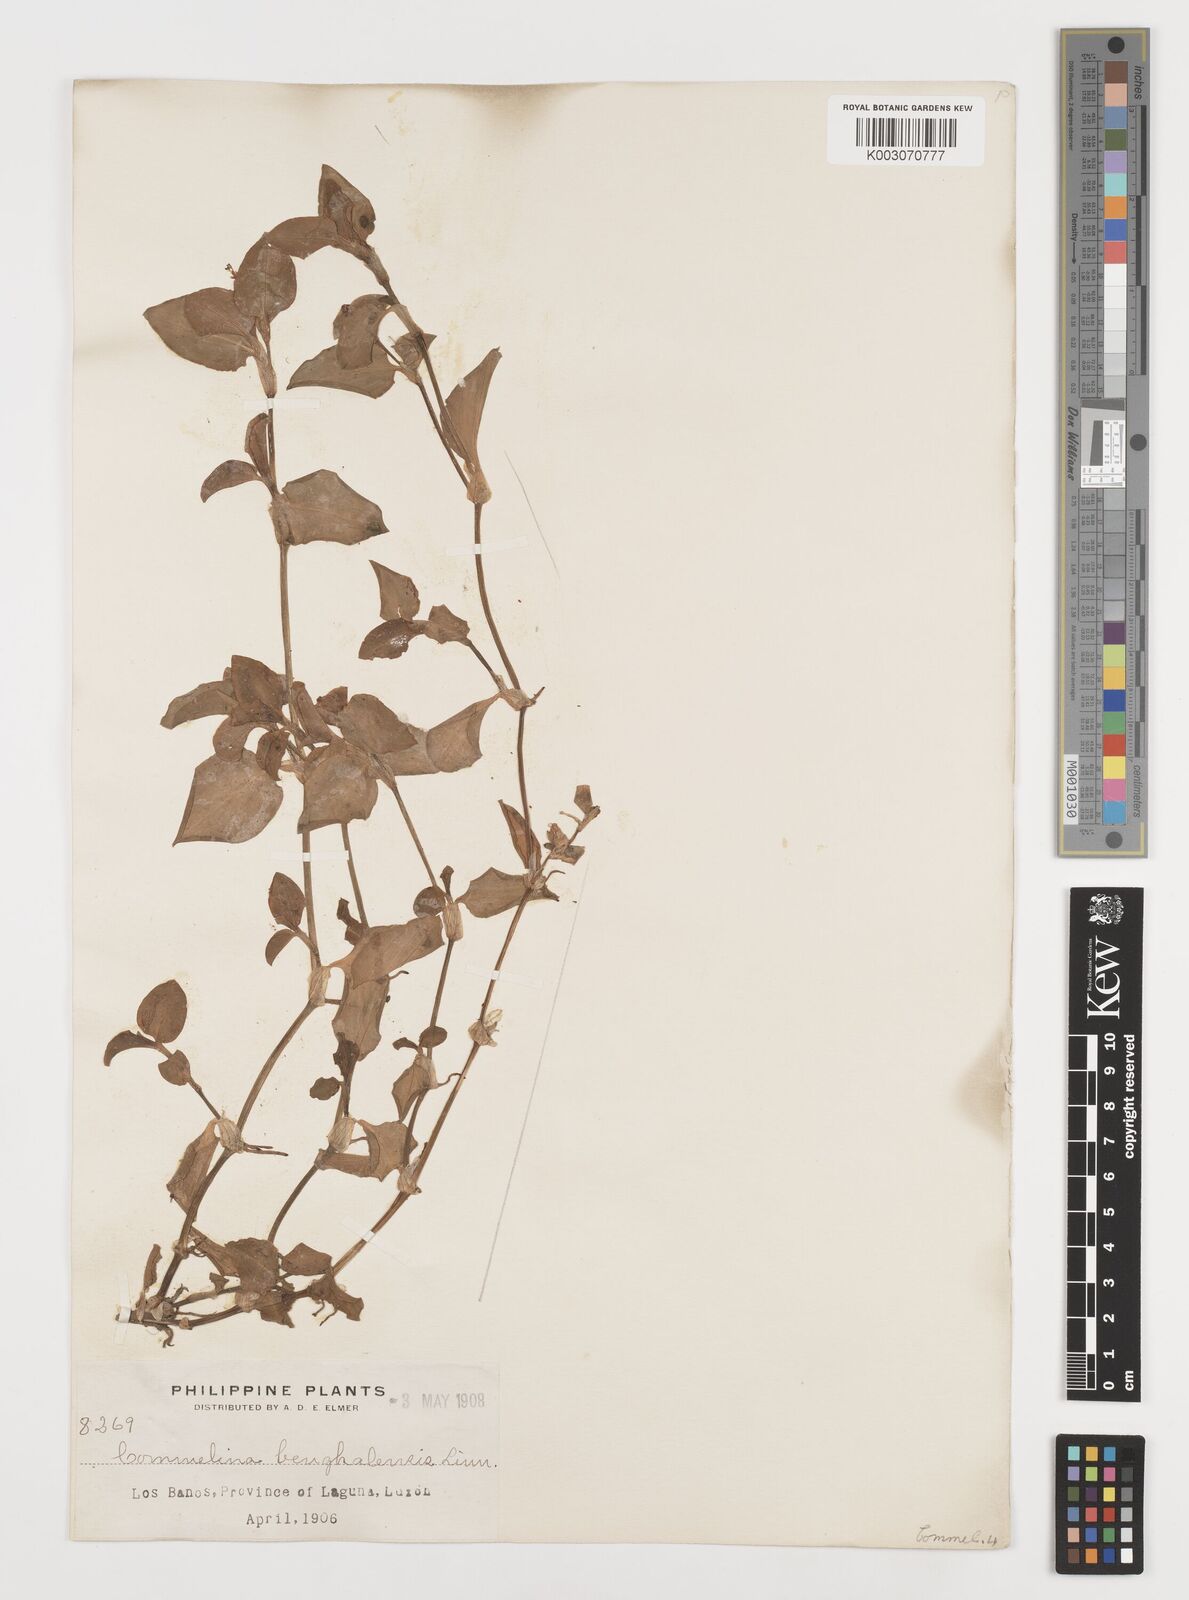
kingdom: Plantae
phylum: Tracheophyta
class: Liliopsida
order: Commelinales
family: Commelinaceae
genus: Commelina
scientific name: Commelina benghalensis
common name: Jio
